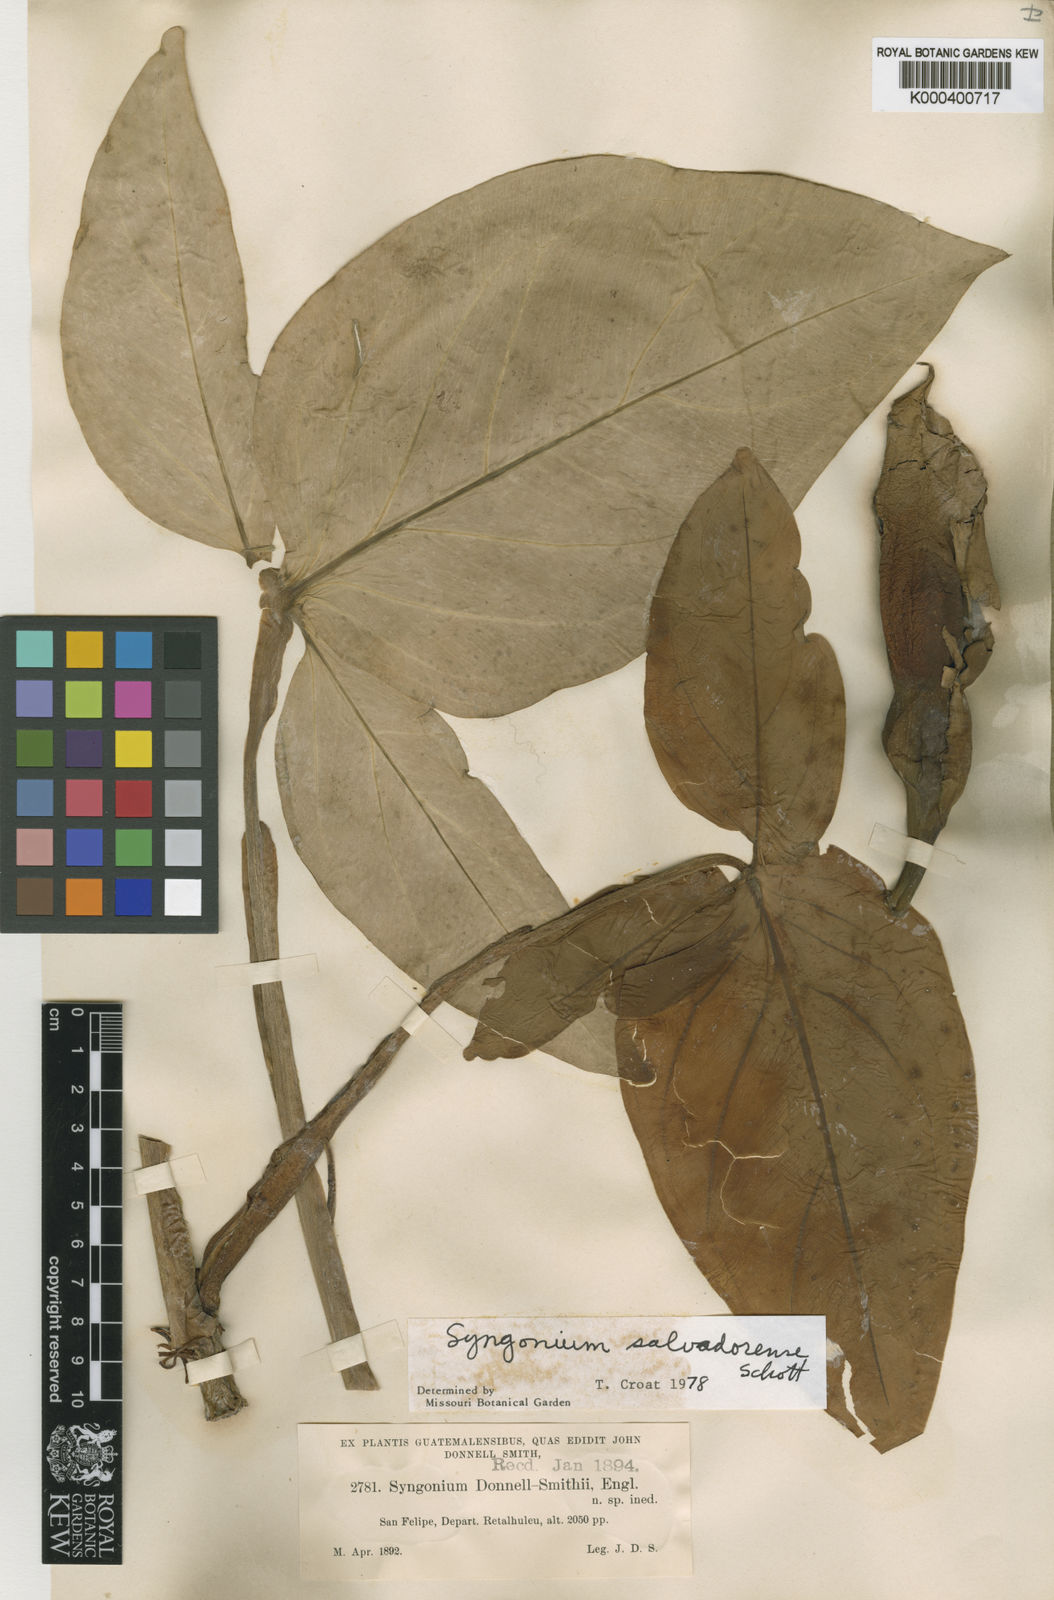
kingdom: Plantae
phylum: Tracheophyta
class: Liliopsida
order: Alismatales
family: Araceae
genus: Syngonium
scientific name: Syngonium salvadorense
